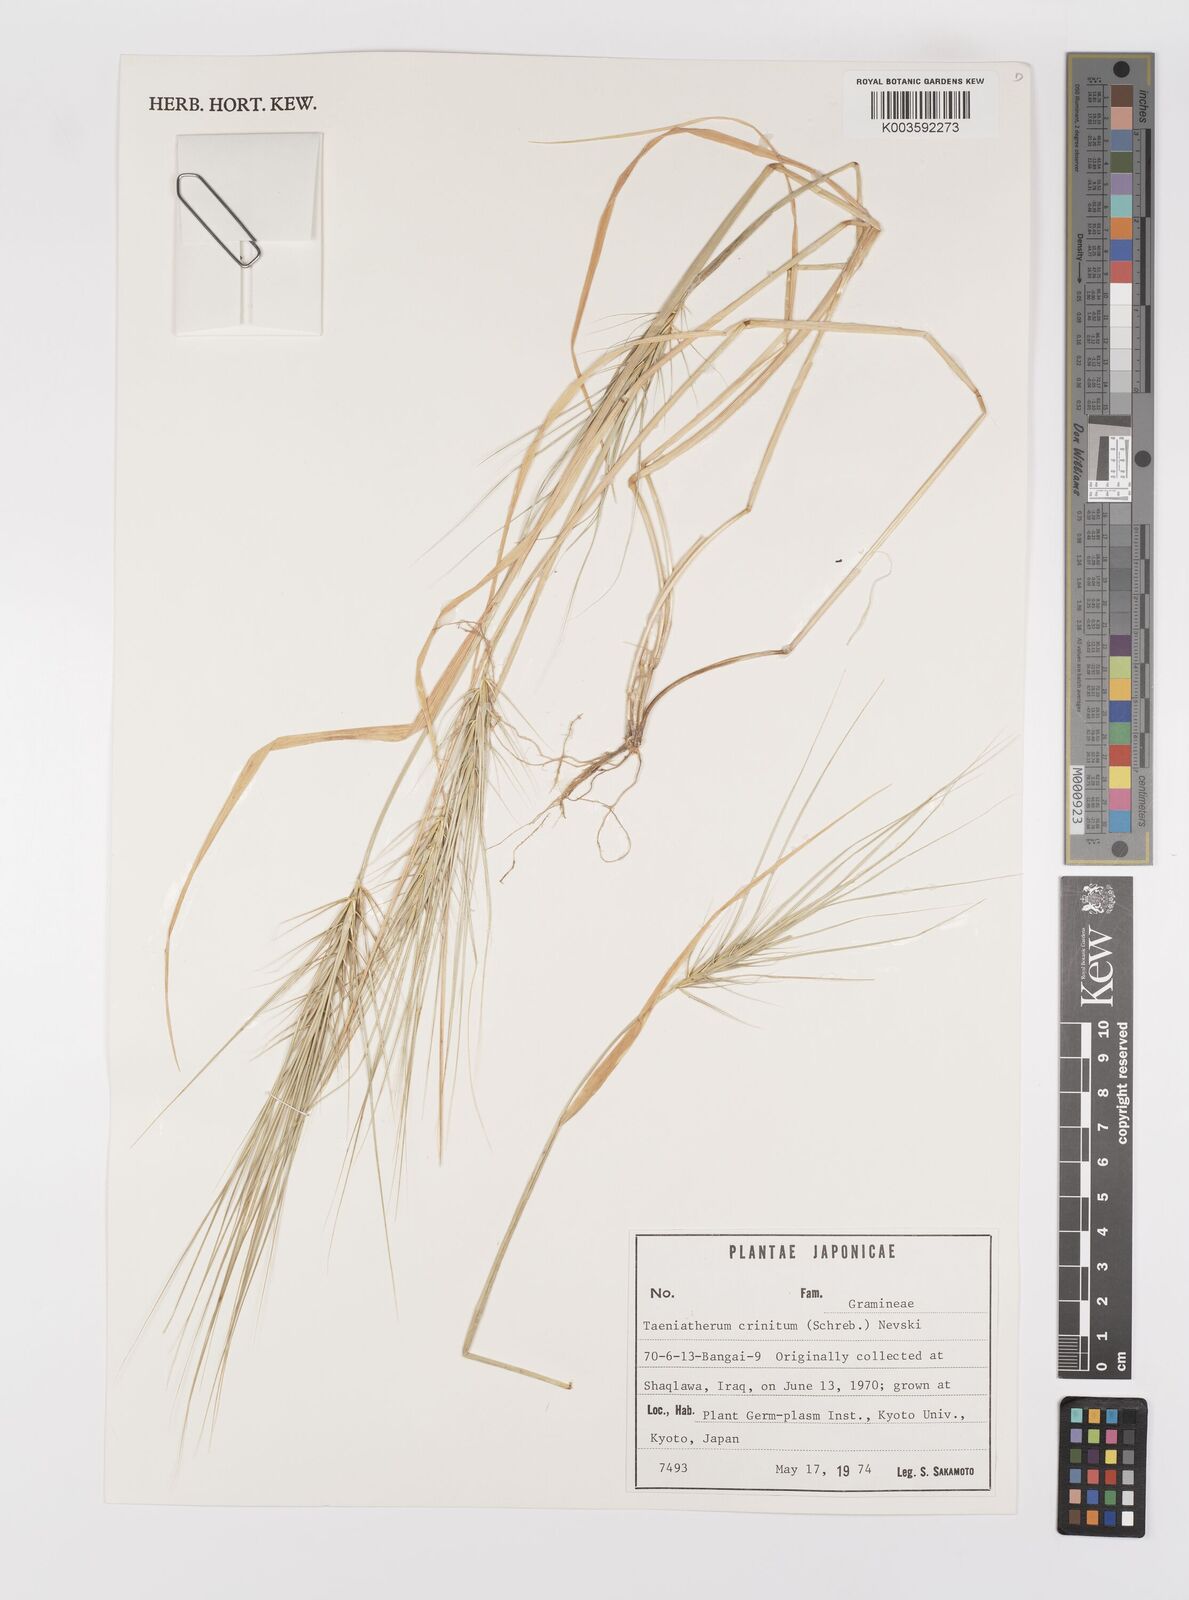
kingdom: Plantae
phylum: Tracheophyta
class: Liliopsida
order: Poales
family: Poaceae
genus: Taeniatherum
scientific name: Taeniatherum caput-medusae
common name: Medusahead
